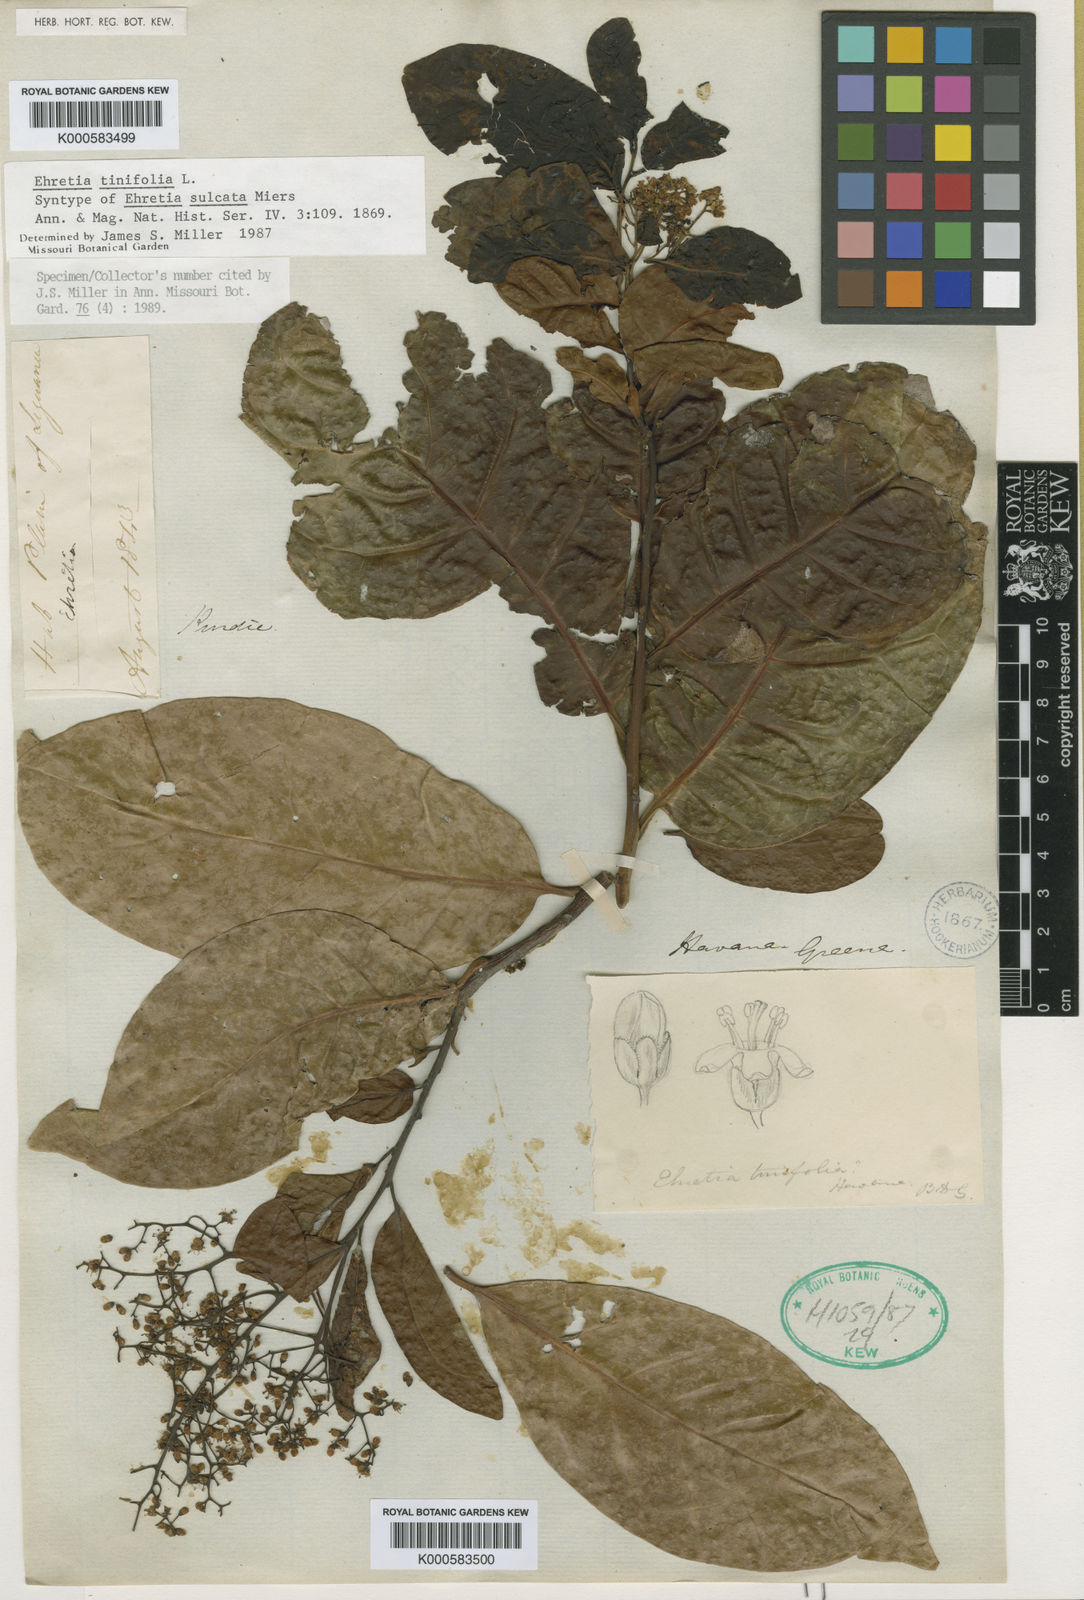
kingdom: Plantae
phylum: Tracheophyta
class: Magnoliopsida
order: Boraginales
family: Ehretiaceae
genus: Ehretia
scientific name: Ehretia tinifolia
